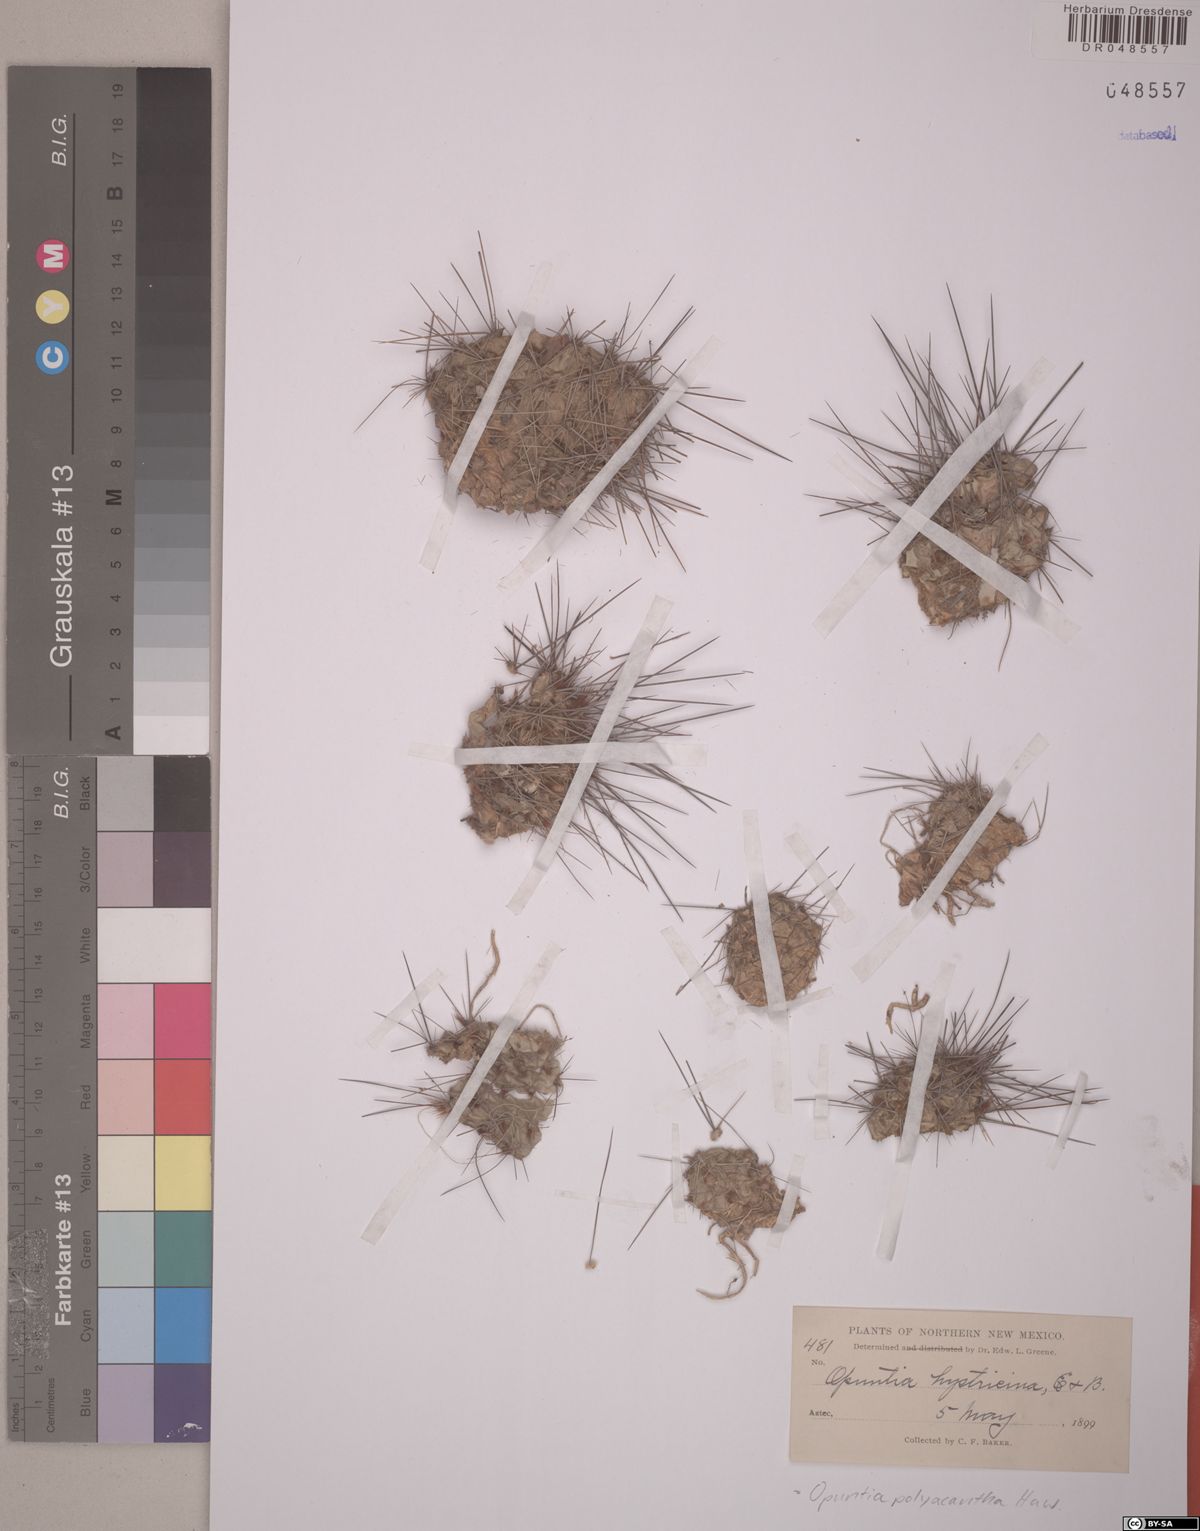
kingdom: Plantae
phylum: Tracheophyta
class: Magnoliopsida
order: Caryophyllales
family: Cactaceae
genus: Opuntia
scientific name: Opuntia polyacantha
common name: Plains prickly-pear
